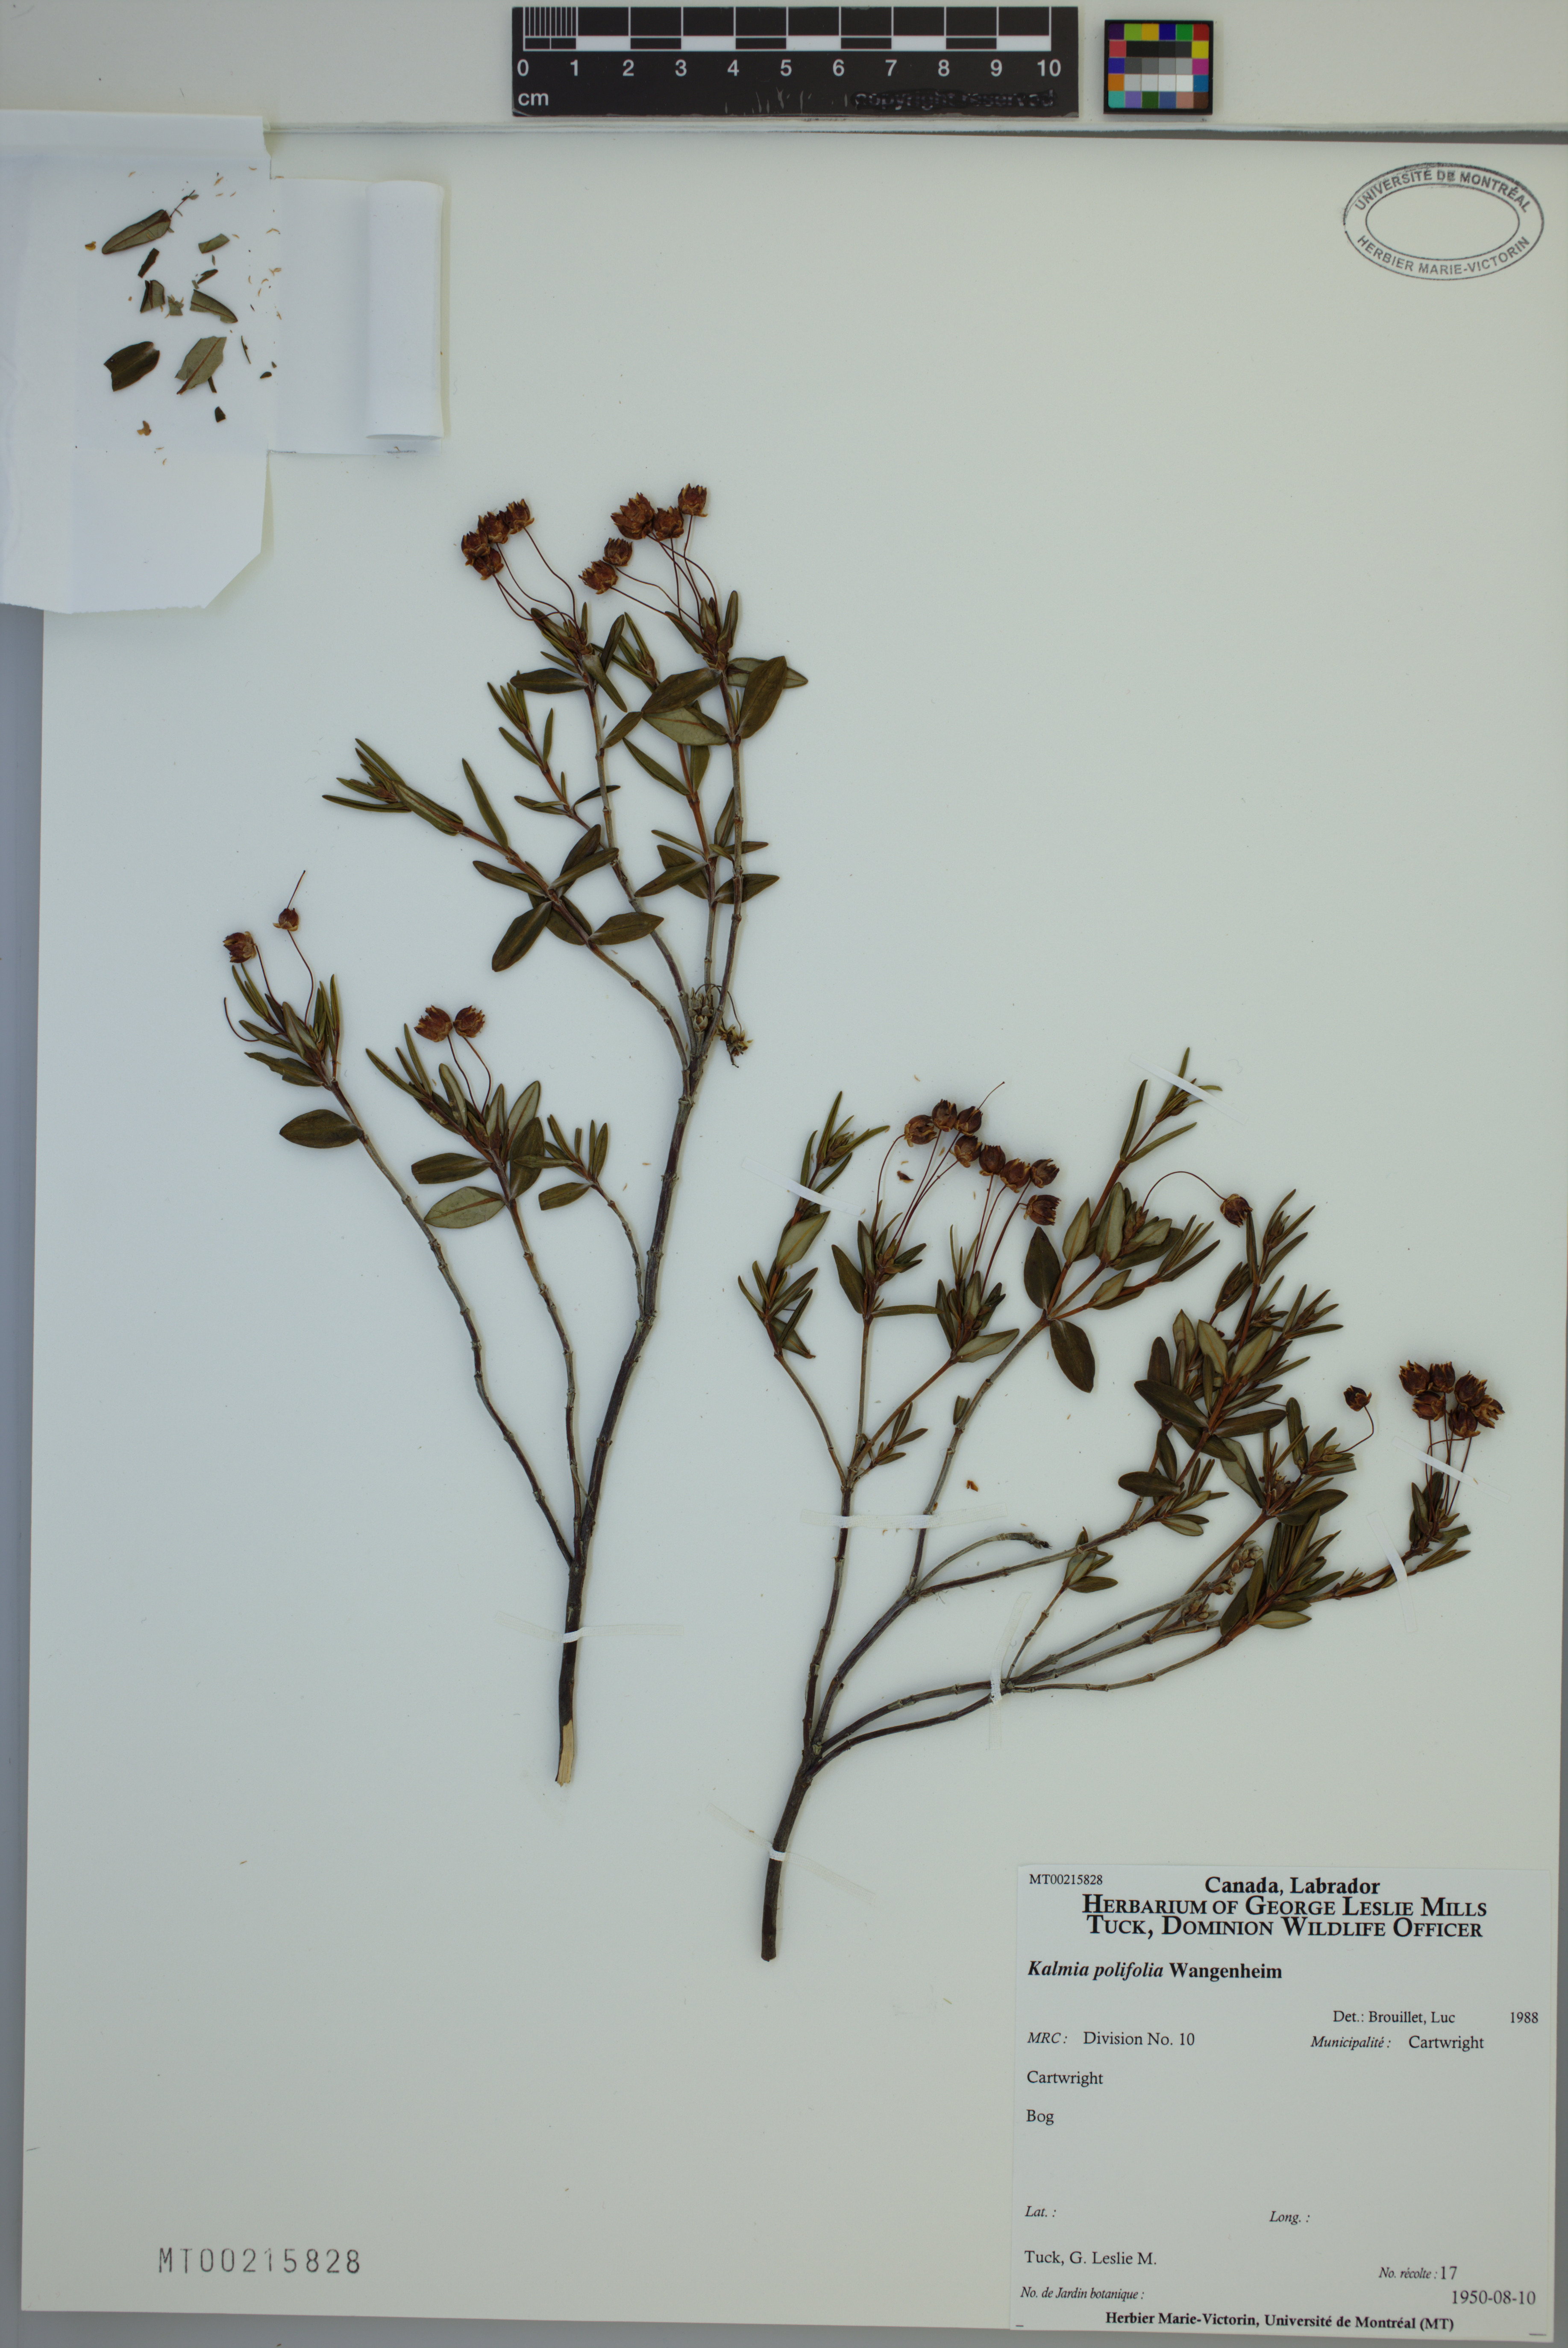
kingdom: Plantae
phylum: Tracheophyta
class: Magnoliopsida
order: Ericales
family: Ericaceae
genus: Kalmia
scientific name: Kalmia polifolia
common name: Bog-laurel
